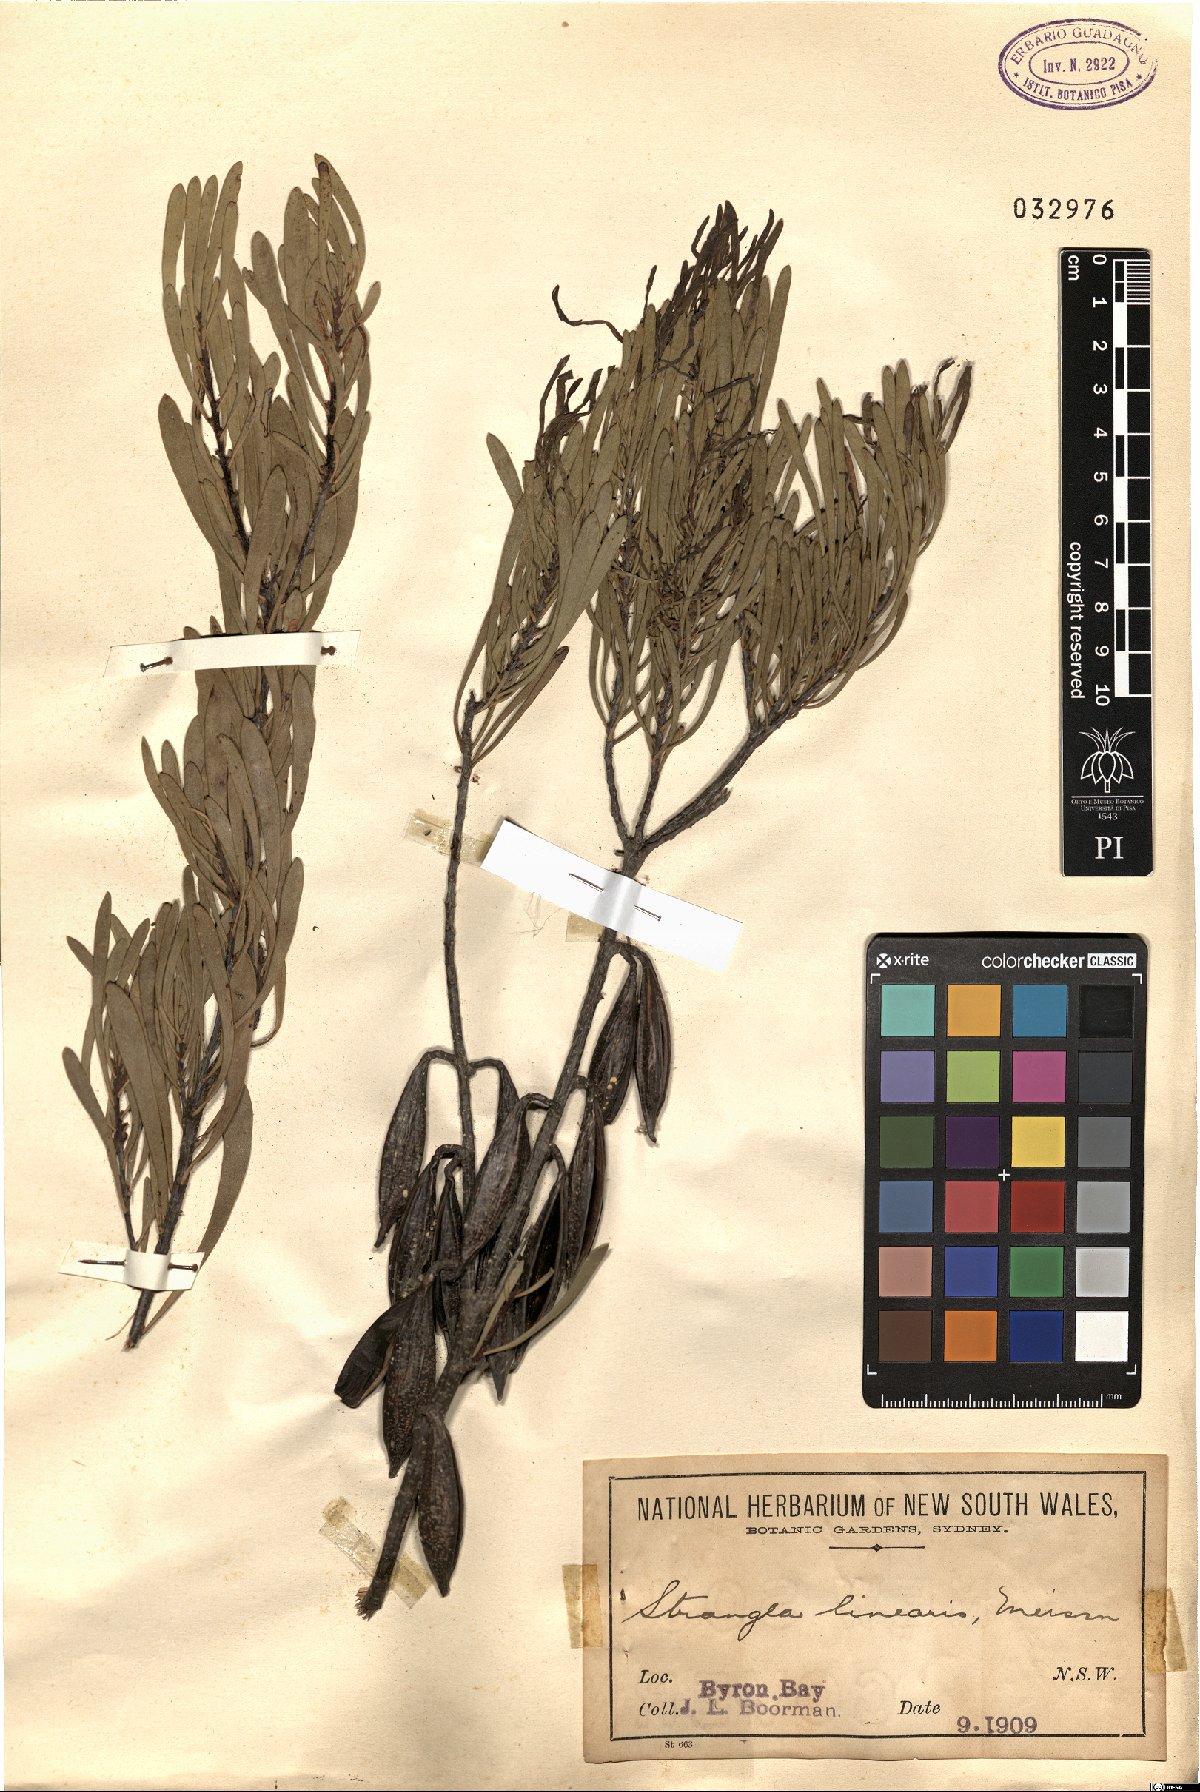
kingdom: Plantae
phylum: Tracheophyta
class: Magnoliopsida
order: Proteales
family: Proteaceae
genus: Strangea
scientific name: Strangea linearis
